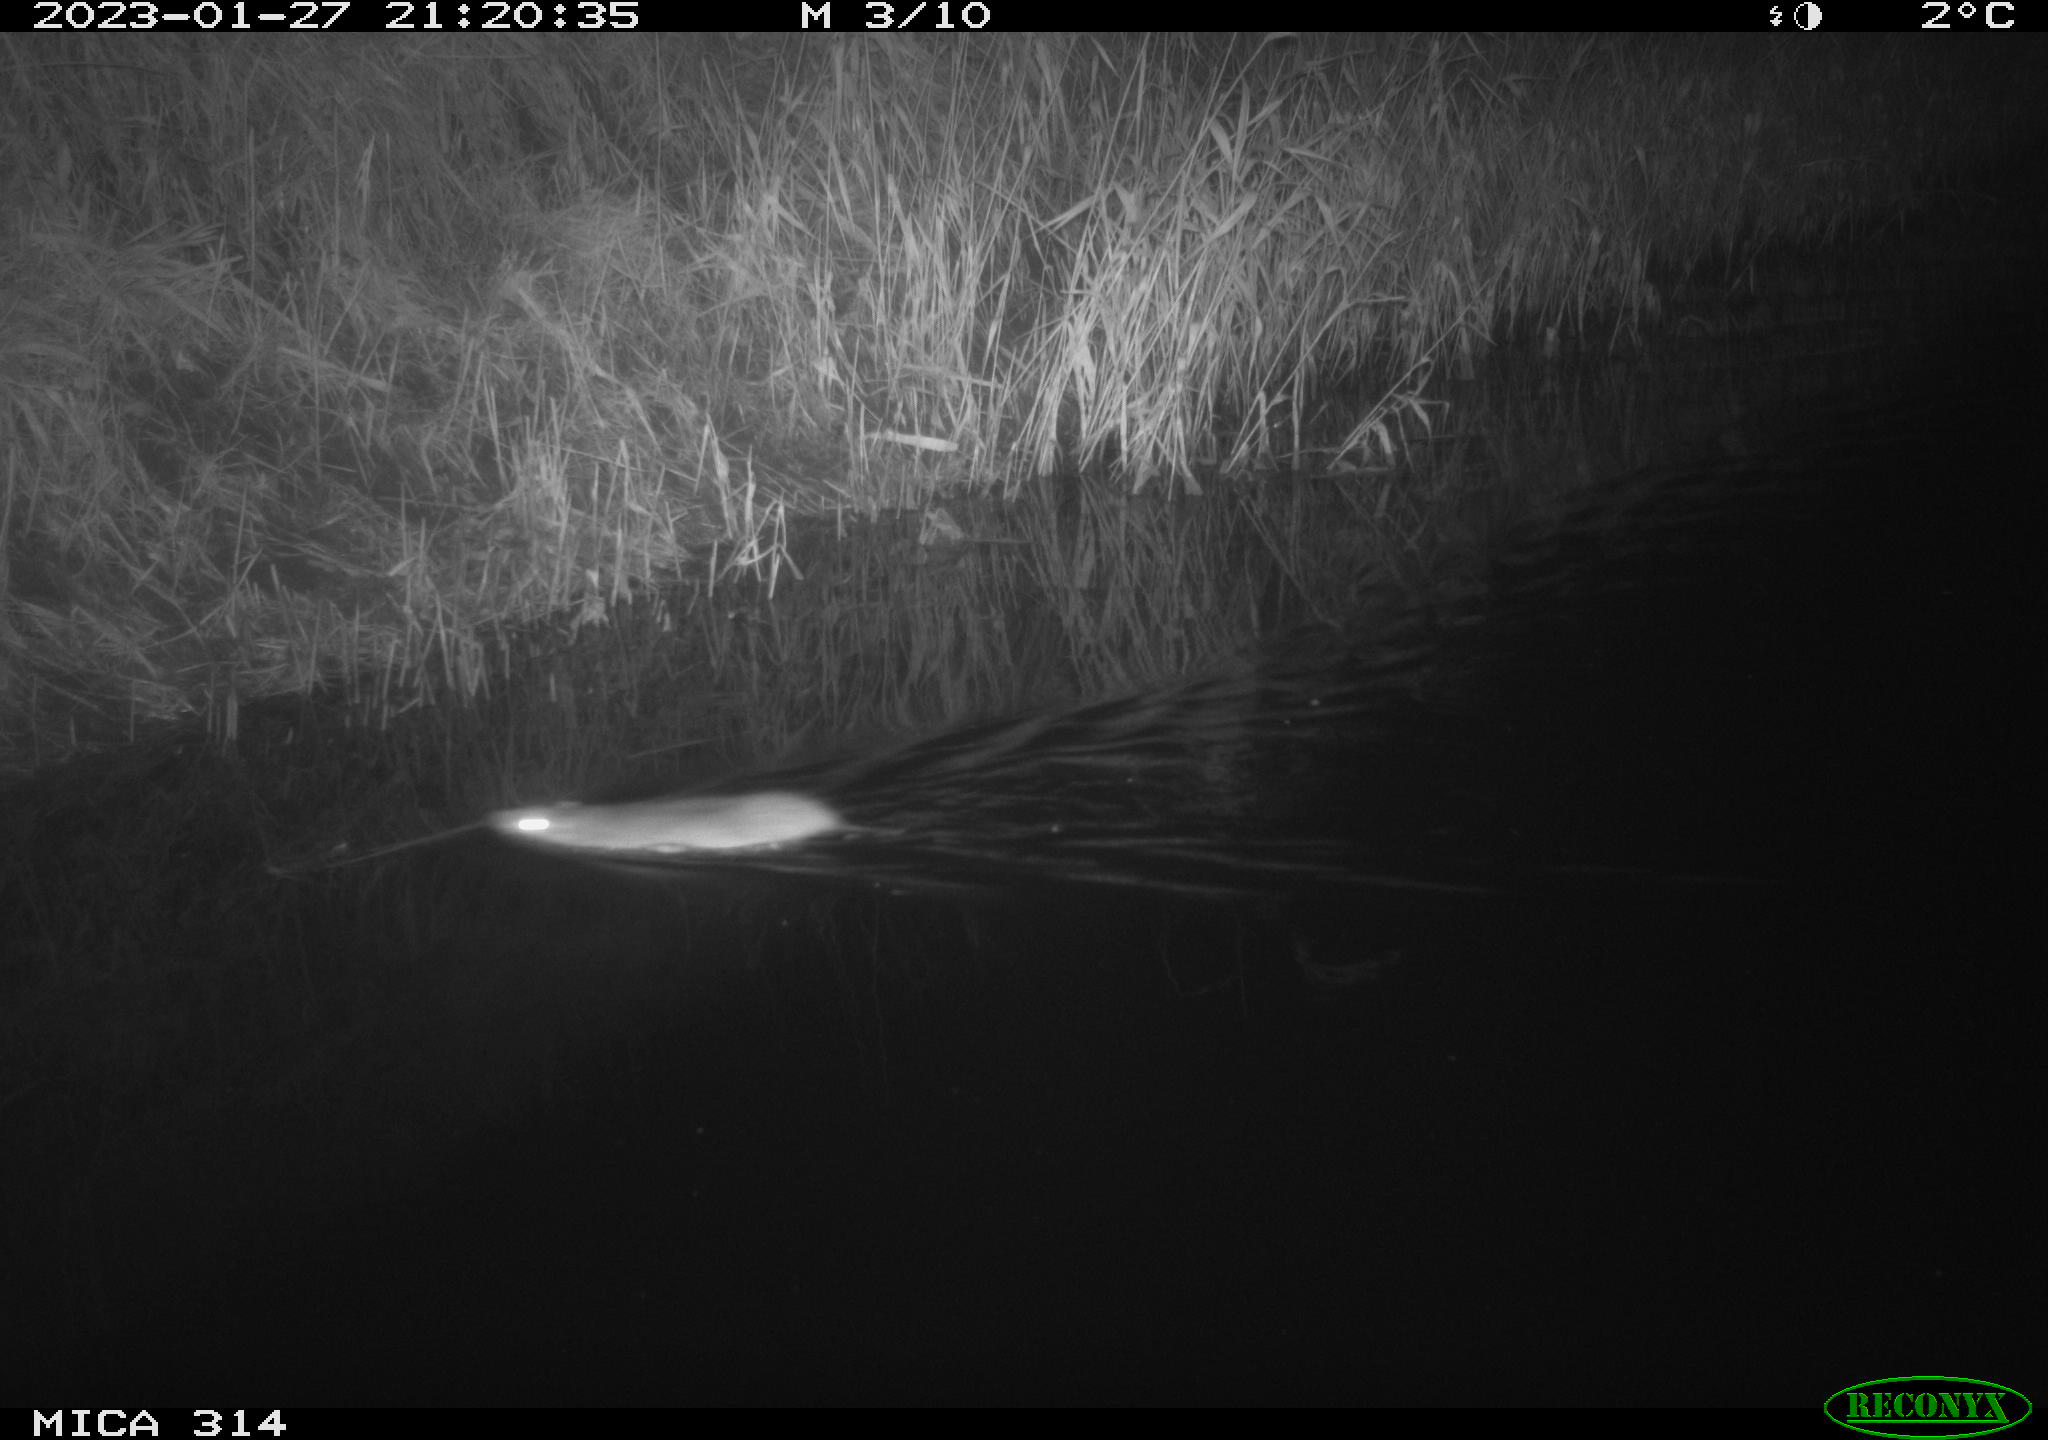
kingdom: Animalia
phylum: Chordata
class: Mammalia
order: Rodentia
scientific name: Rodentia
